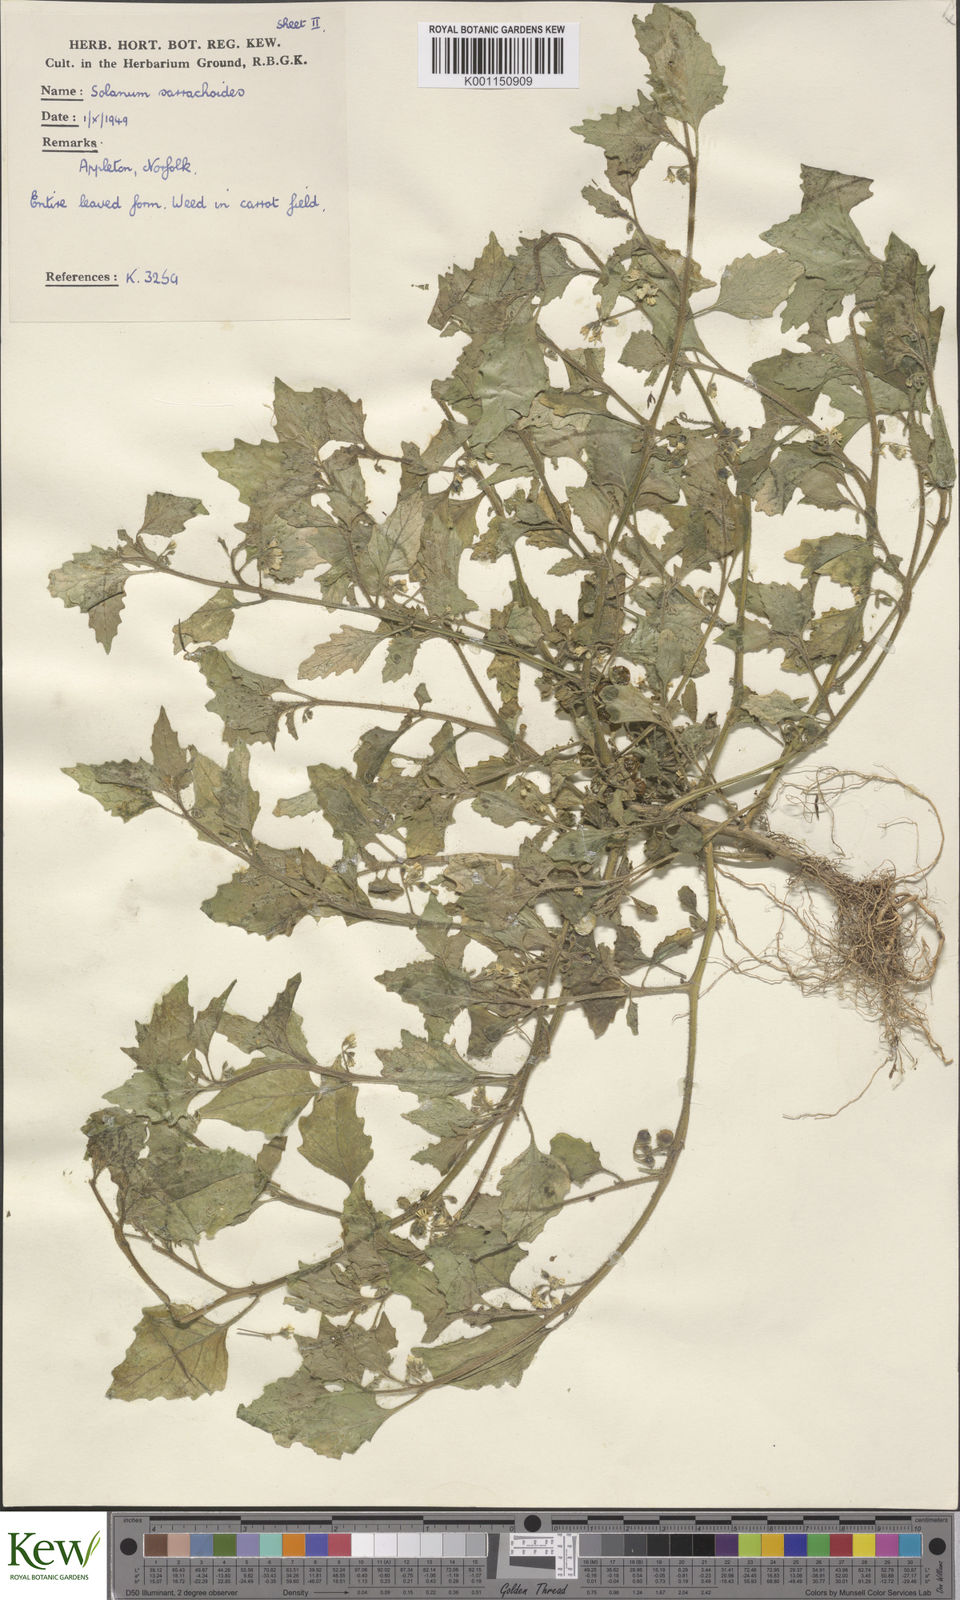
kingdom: Plantae
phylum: Tracheophyta
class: Magnoliopsida
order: Solanales
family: Solanaceae
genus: Solanum
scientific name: Solanum nitidibaccatum
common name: Hairy nightshade
